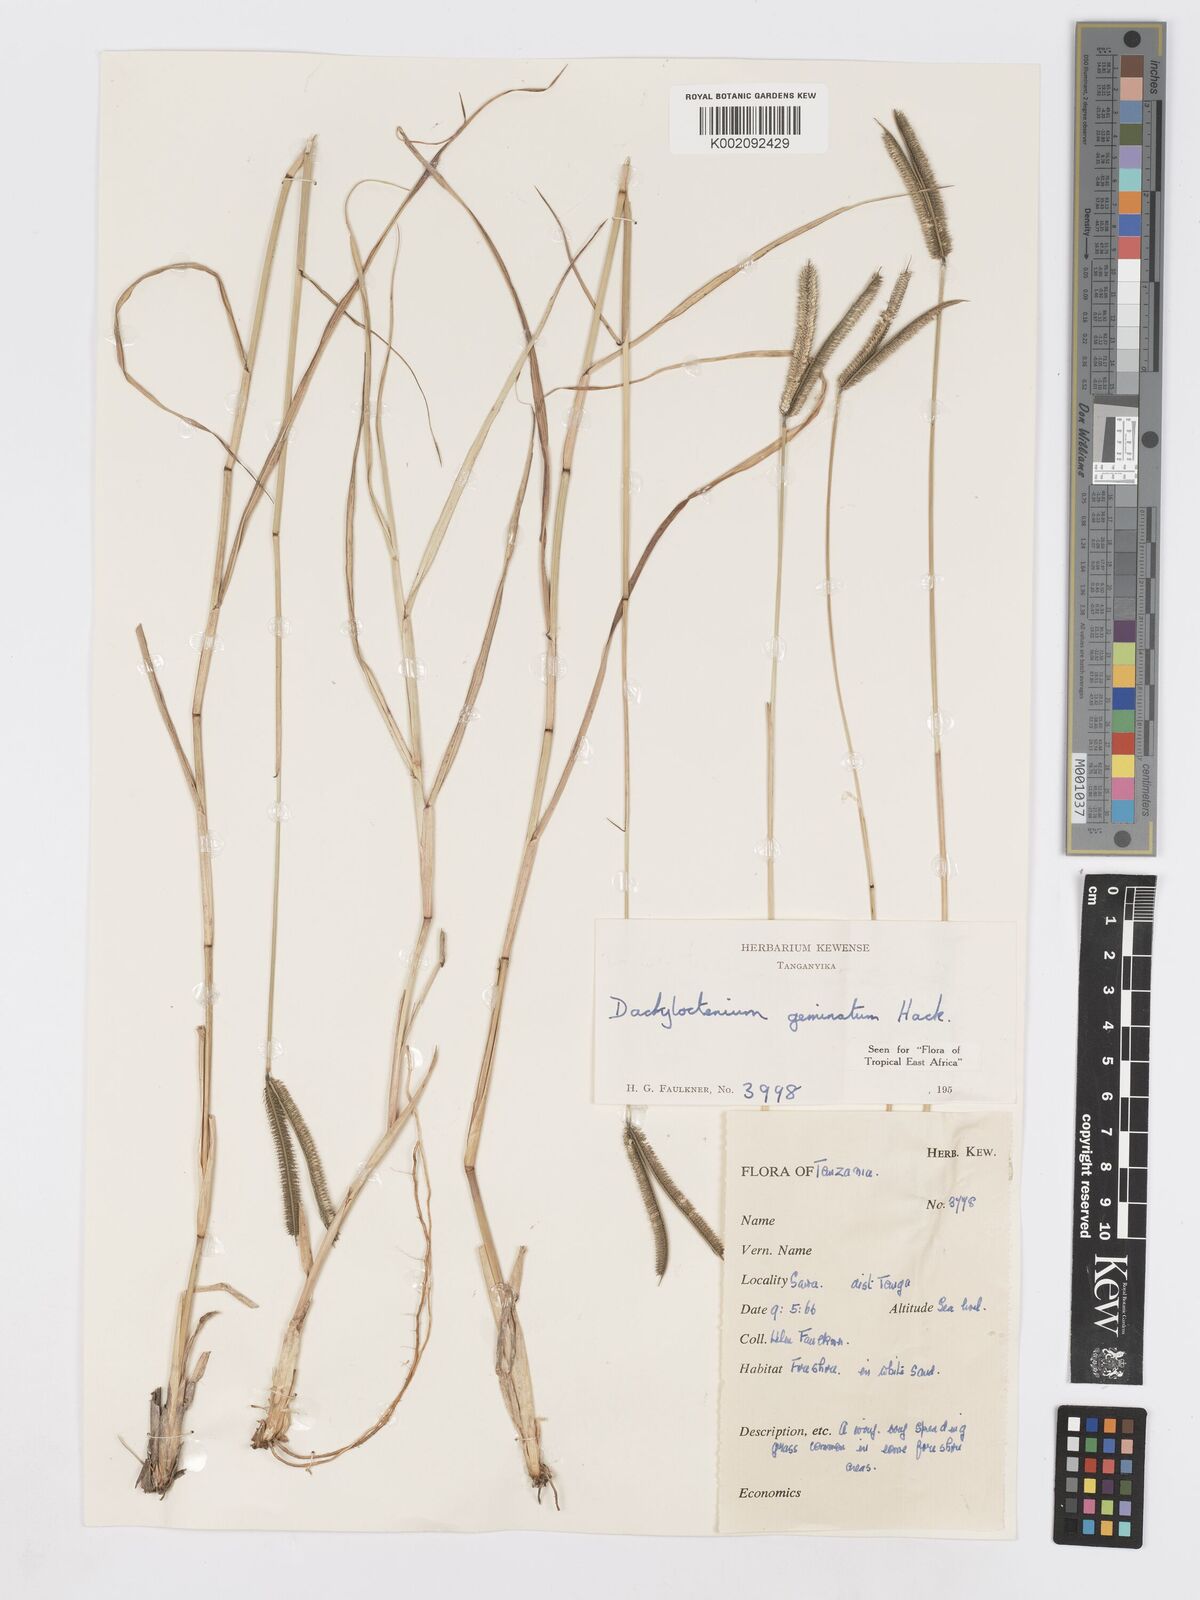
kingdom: Plantae
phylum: Tracheophyta
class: Liliopsida
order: Poales
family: Poaceae
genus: Dactyloctenium
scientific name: Dactyloctenium geminatum
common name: Crowsfoot grass
